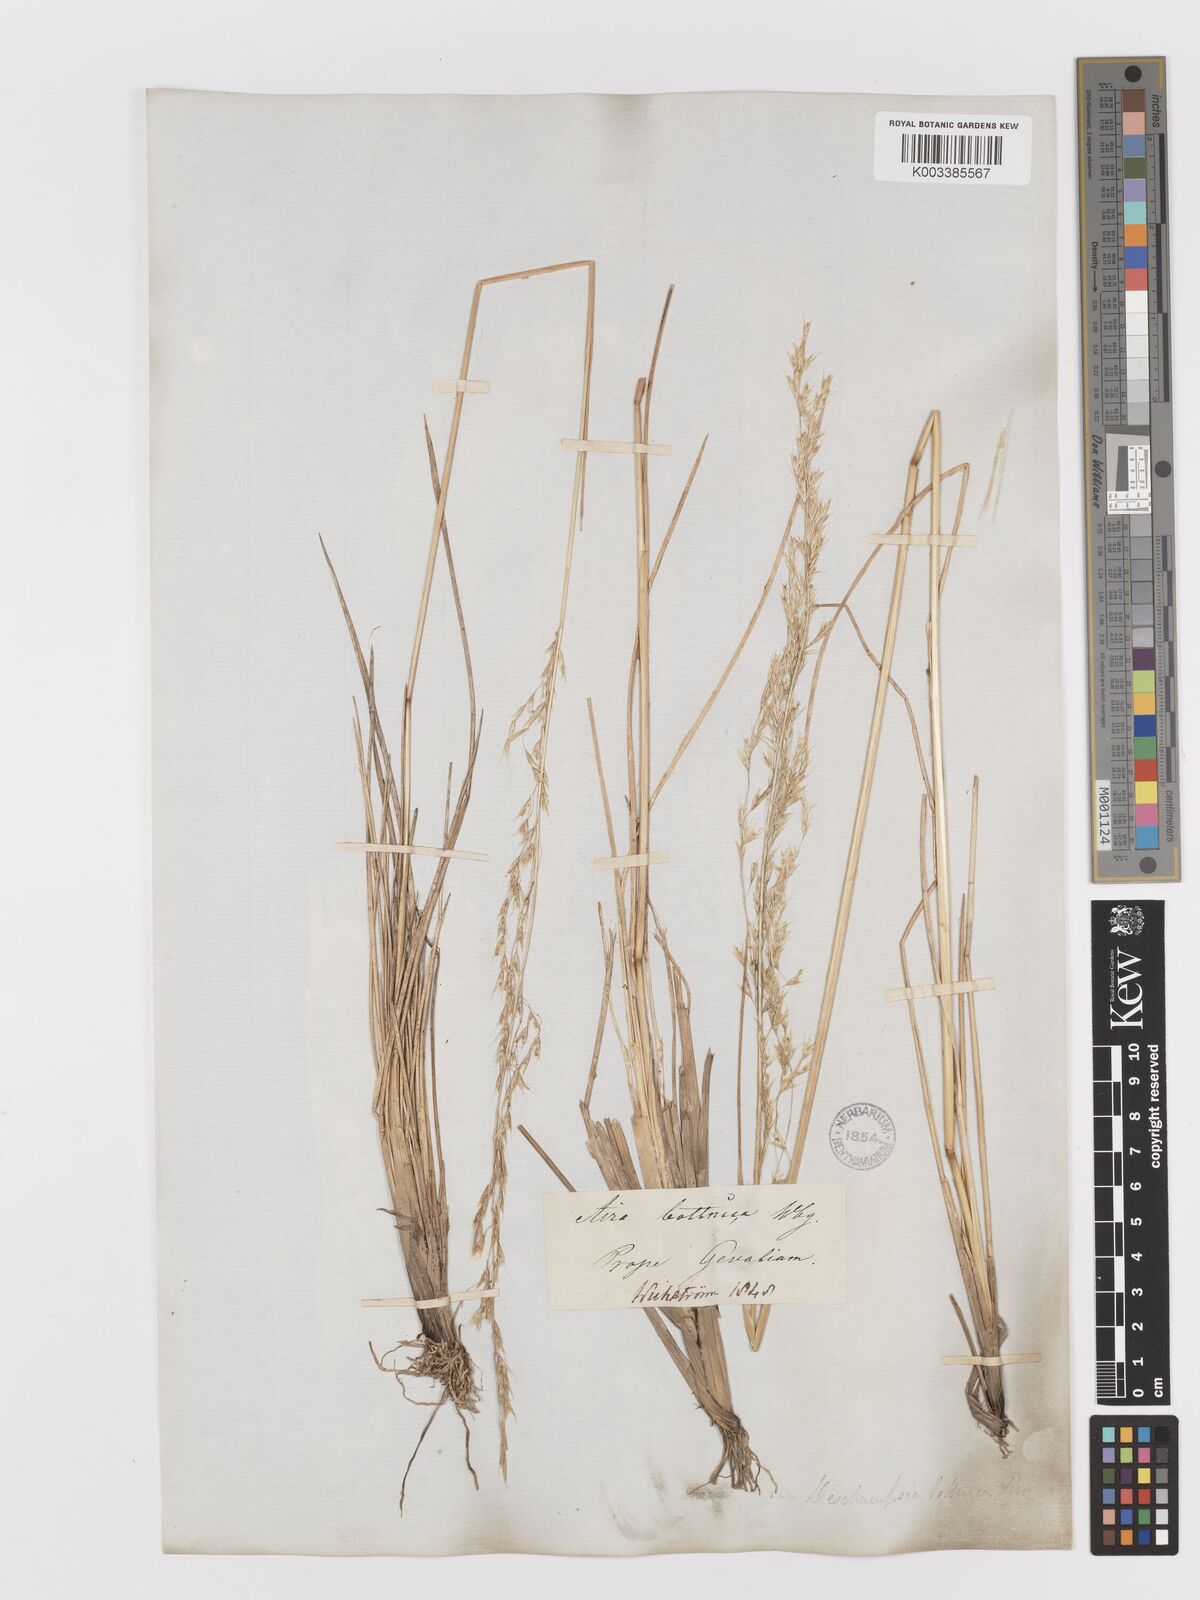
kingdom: Plantae
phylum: Tracheophyta
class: Liliopsida
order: Poales
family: Poaceae
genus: Deschampsia
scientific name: Deschampsia cespitosa
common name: Tufted hair-grass
